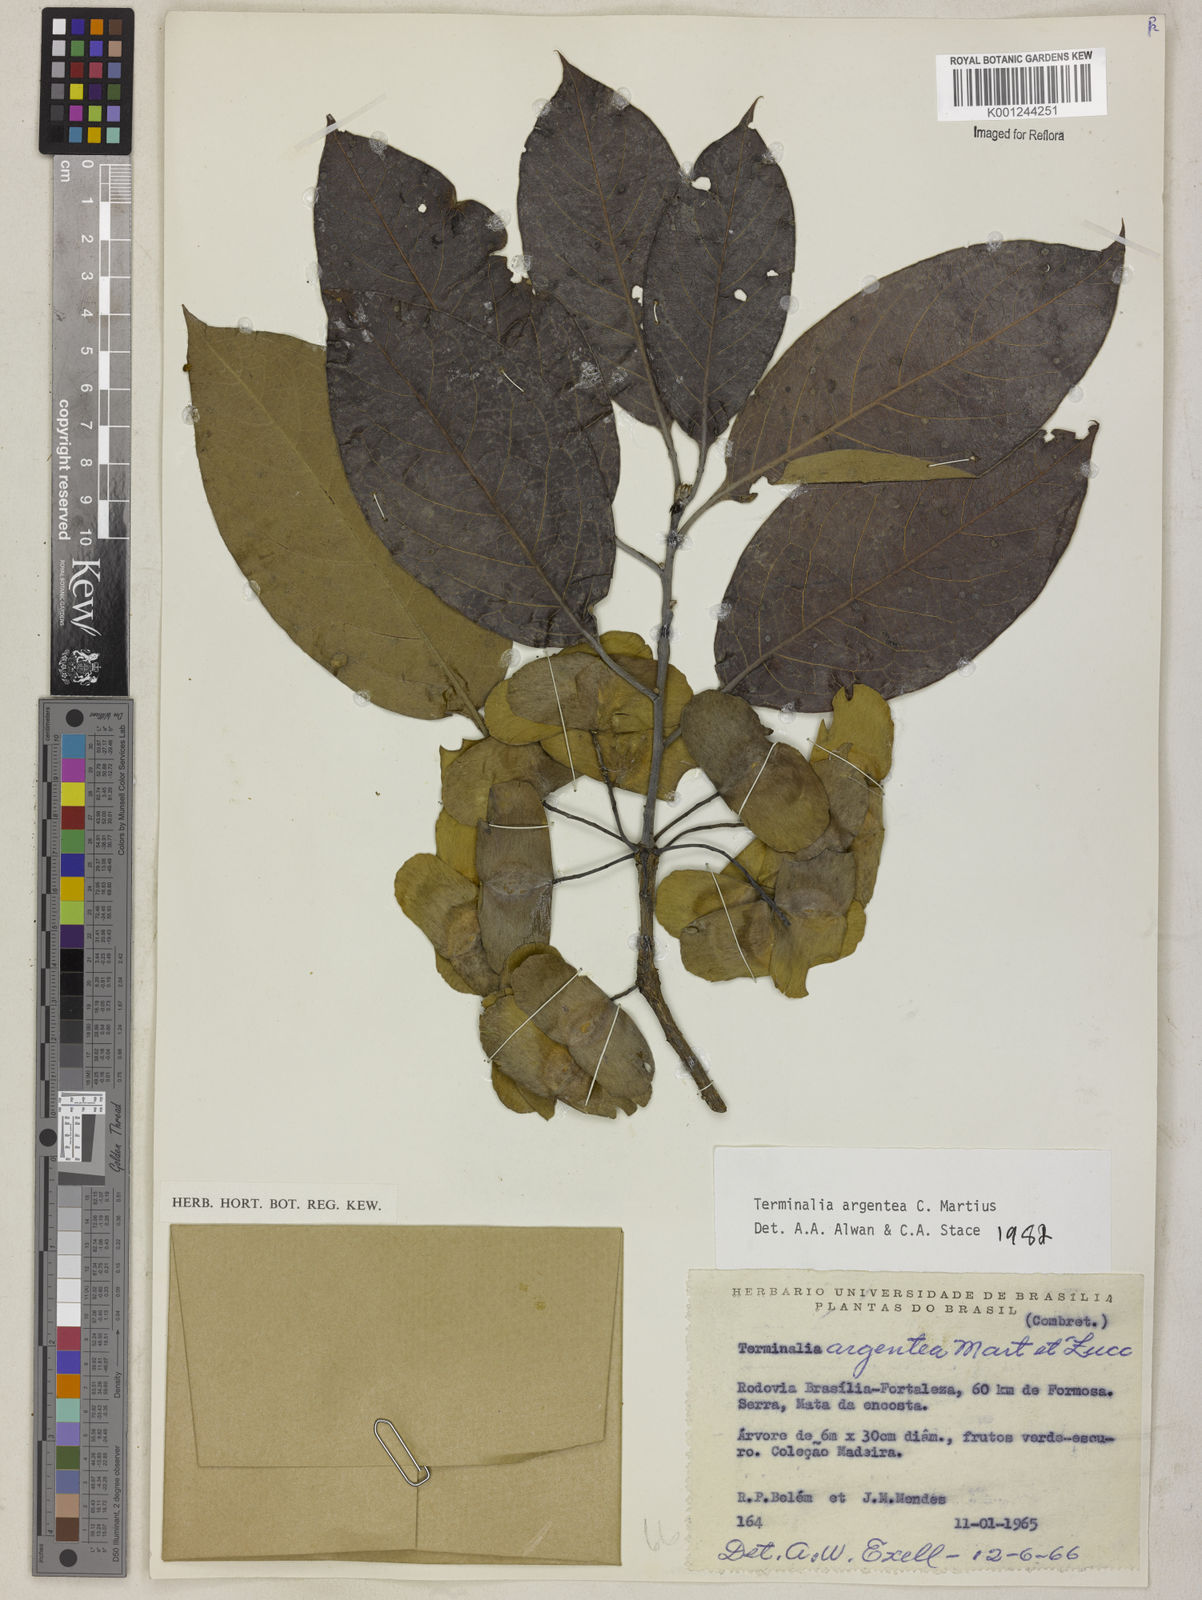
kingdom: Plantae
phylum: Tracheophyta
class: Magnoliopsida
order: Myrtales
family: Combretaceae
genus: Terminalia
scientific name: Terminalia argentea
